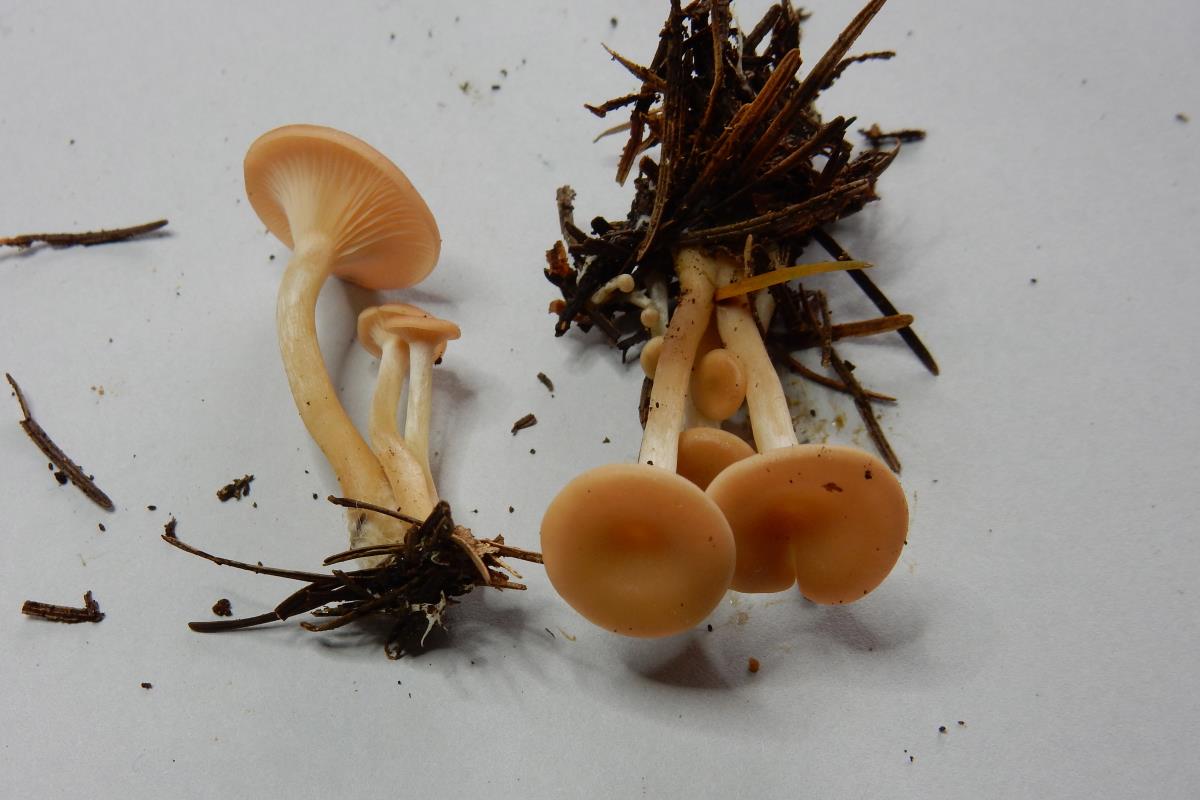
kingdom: Fungi
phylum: Basidiomycota
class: Agaricomycetes
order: Agaricales
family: Tricholomataceae
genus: Singerocybe
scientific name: Singerocybe clitocyboides
